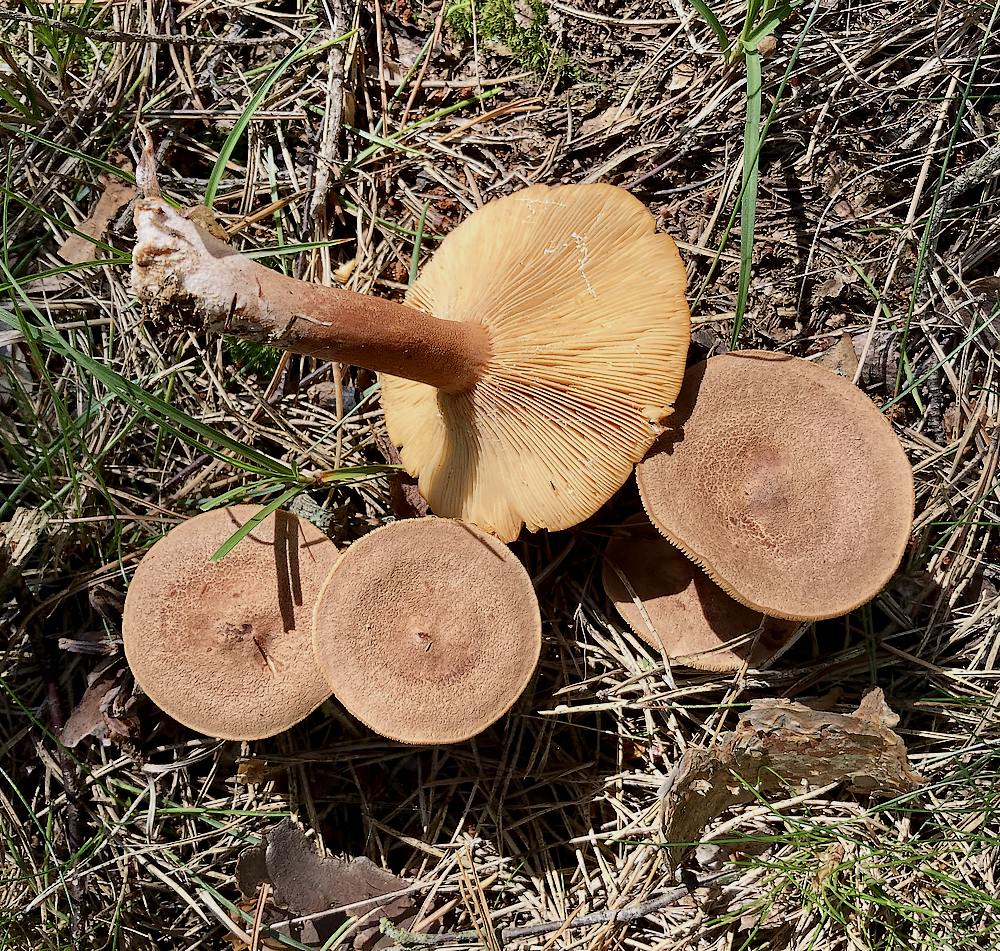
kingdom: Fungi
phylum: Basidiomycota
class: Agaricomycetes
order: Russulales
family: Russulaceae
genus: Lactarius
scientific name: Lactarius helvus
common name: mose-mælkehat
